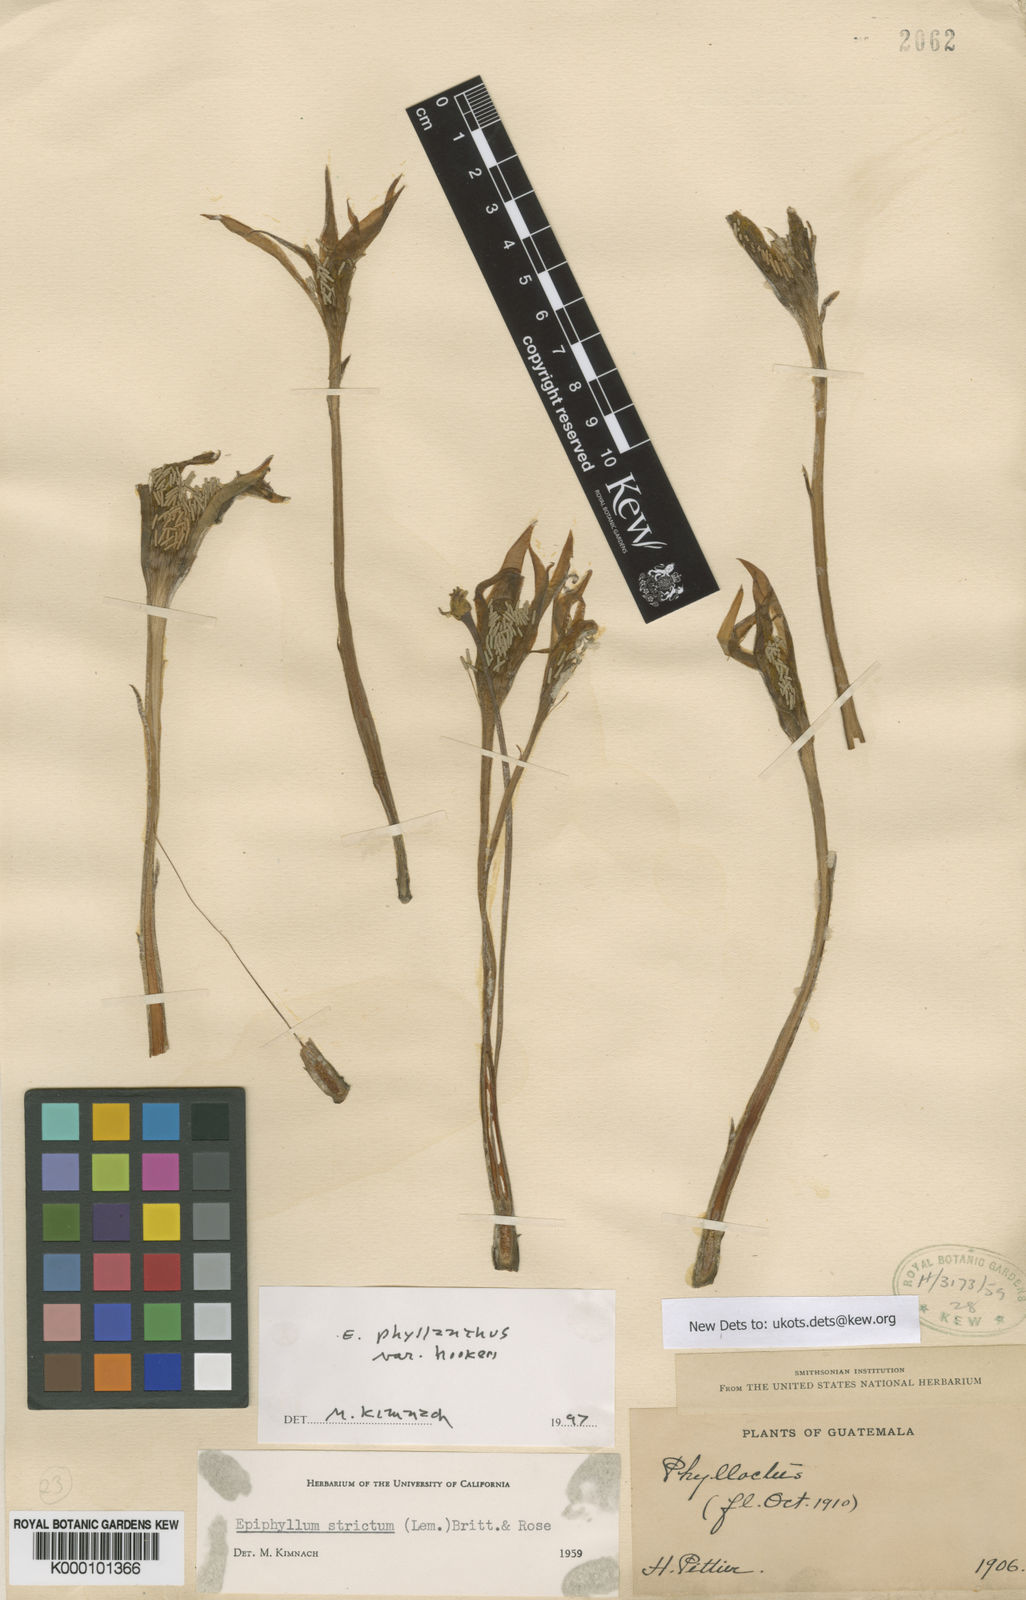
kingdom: Plantae
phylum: Tracheophyta
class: Magnoliopsida
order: Caryophyllales
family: Cactaceae
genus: Epiphyllum
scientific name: Epiphyllum phyllanthus
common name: Climbing cactus
